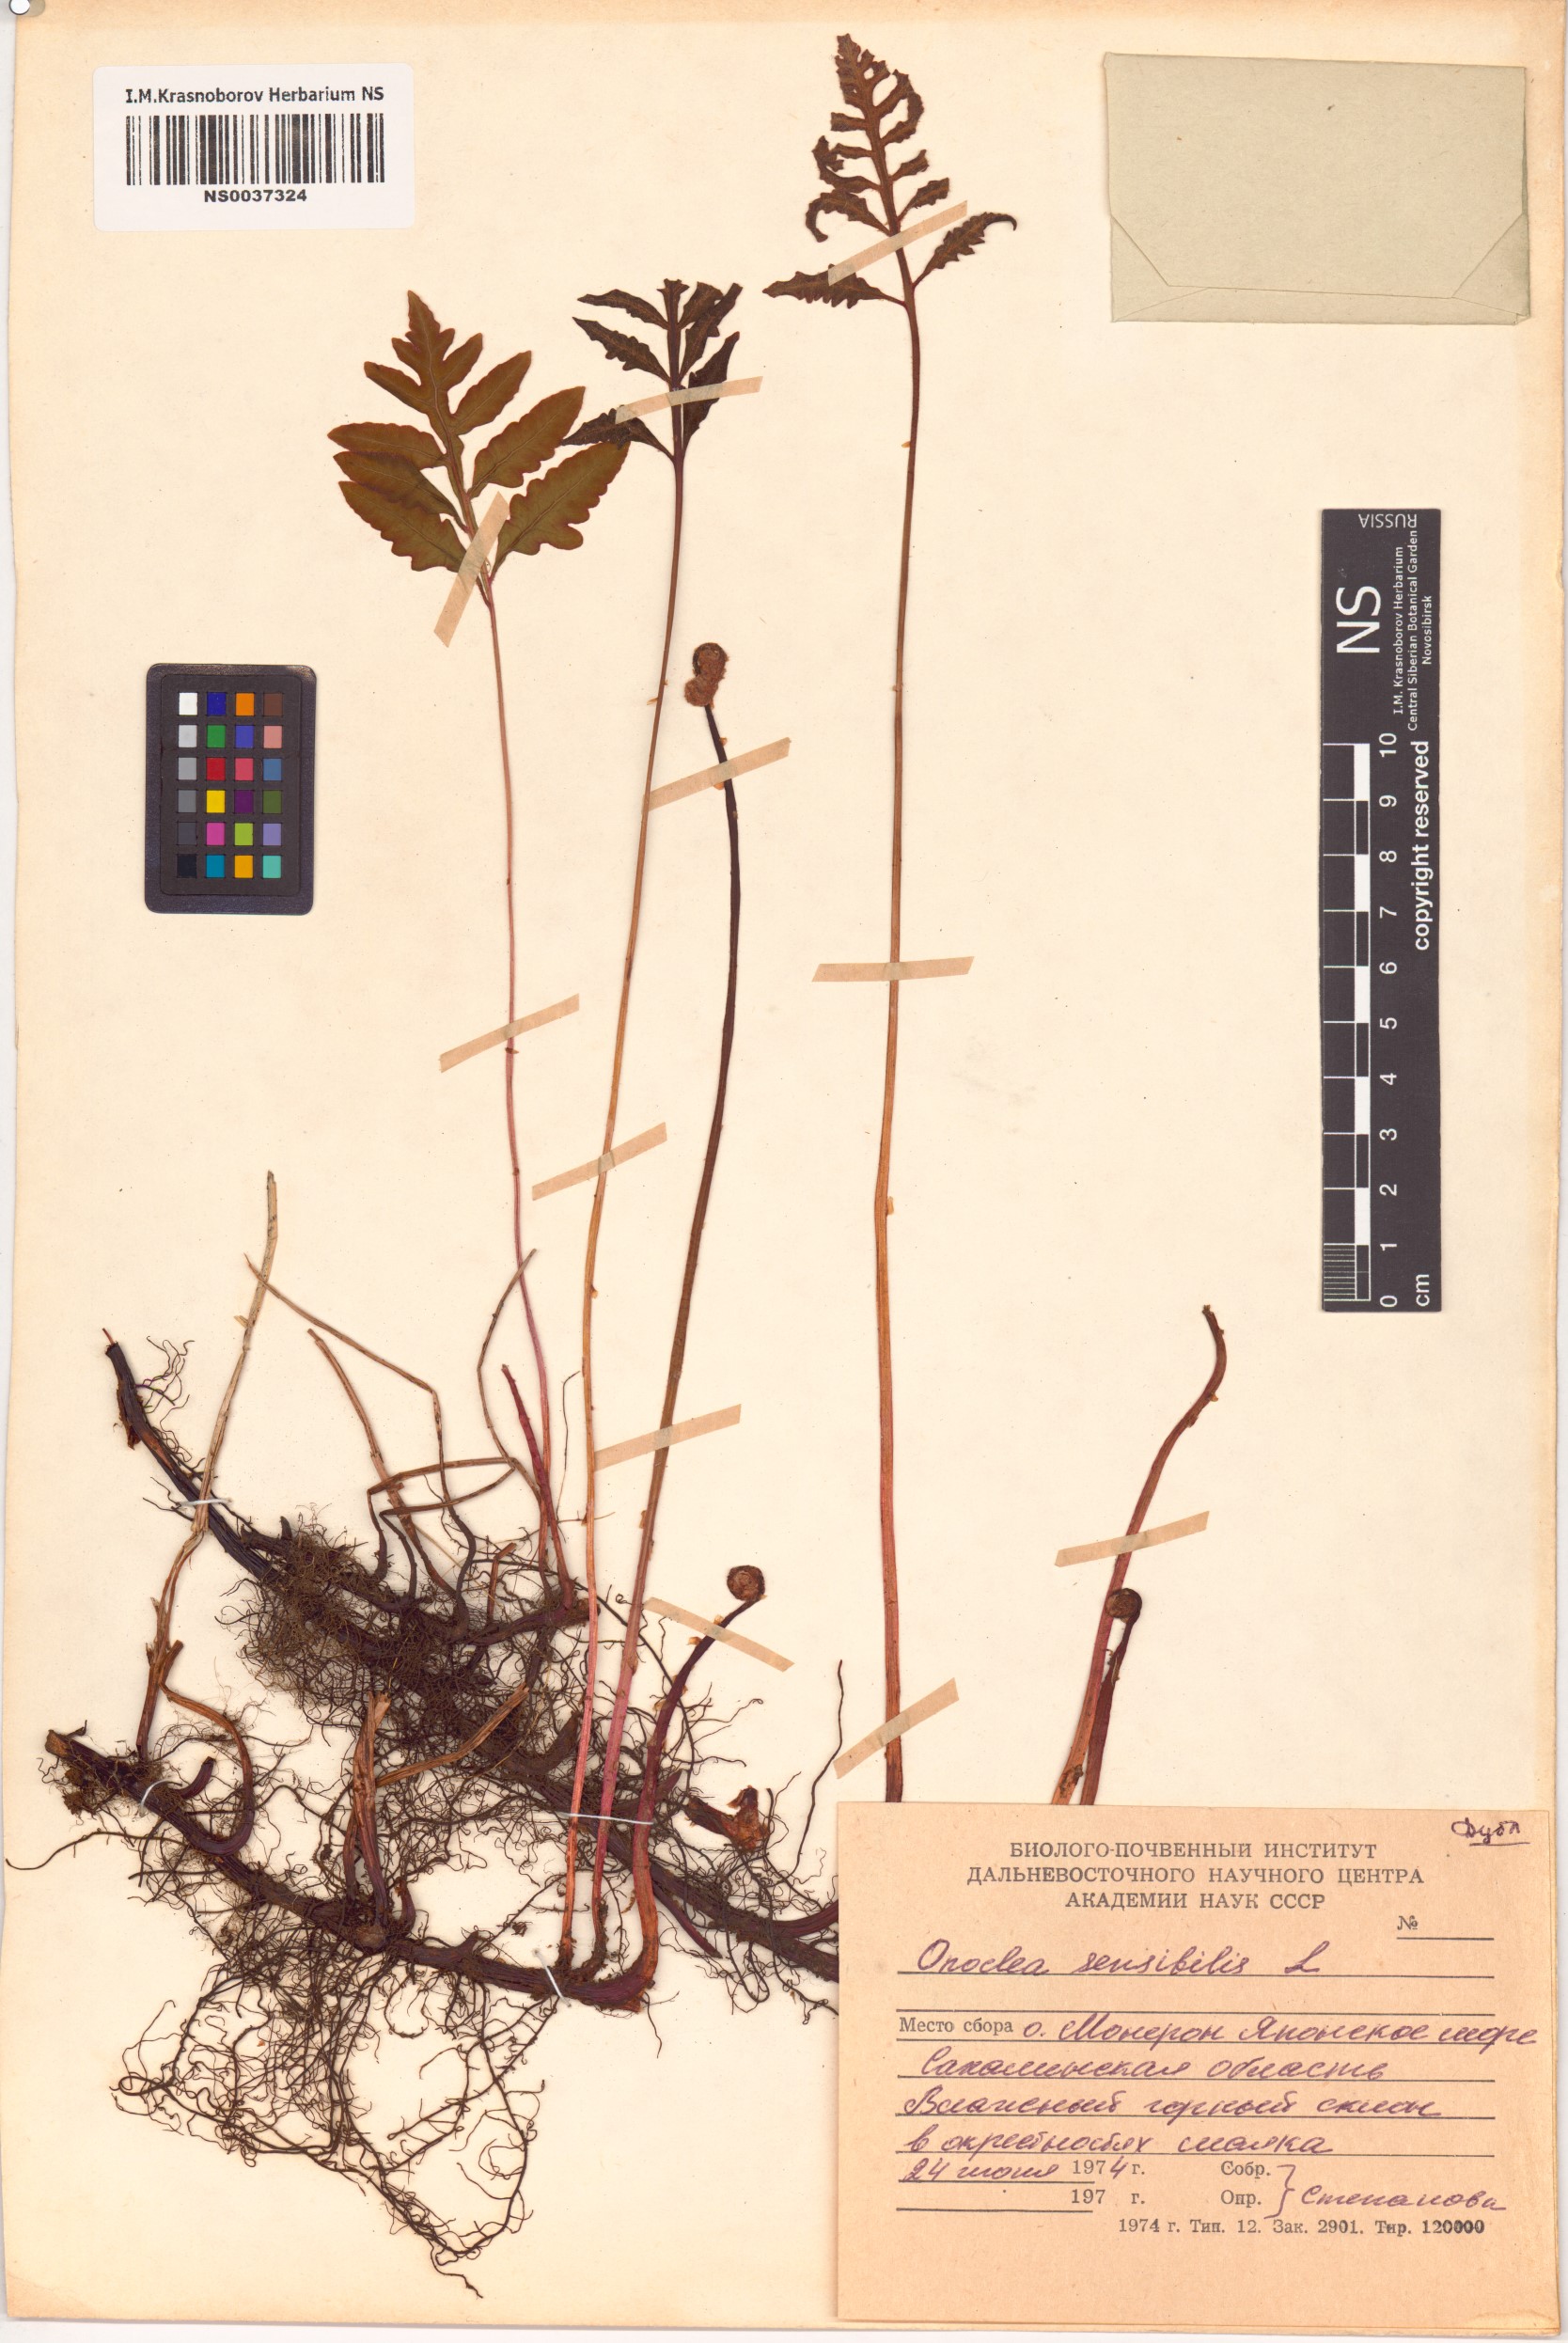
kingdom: Plantae
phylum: Tracheophyta
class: Polypodiopsida
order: Polypodiales
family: Onocleaceae
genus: Onoclea
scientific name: Onoclea sensibilis
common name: Sensitive fern
